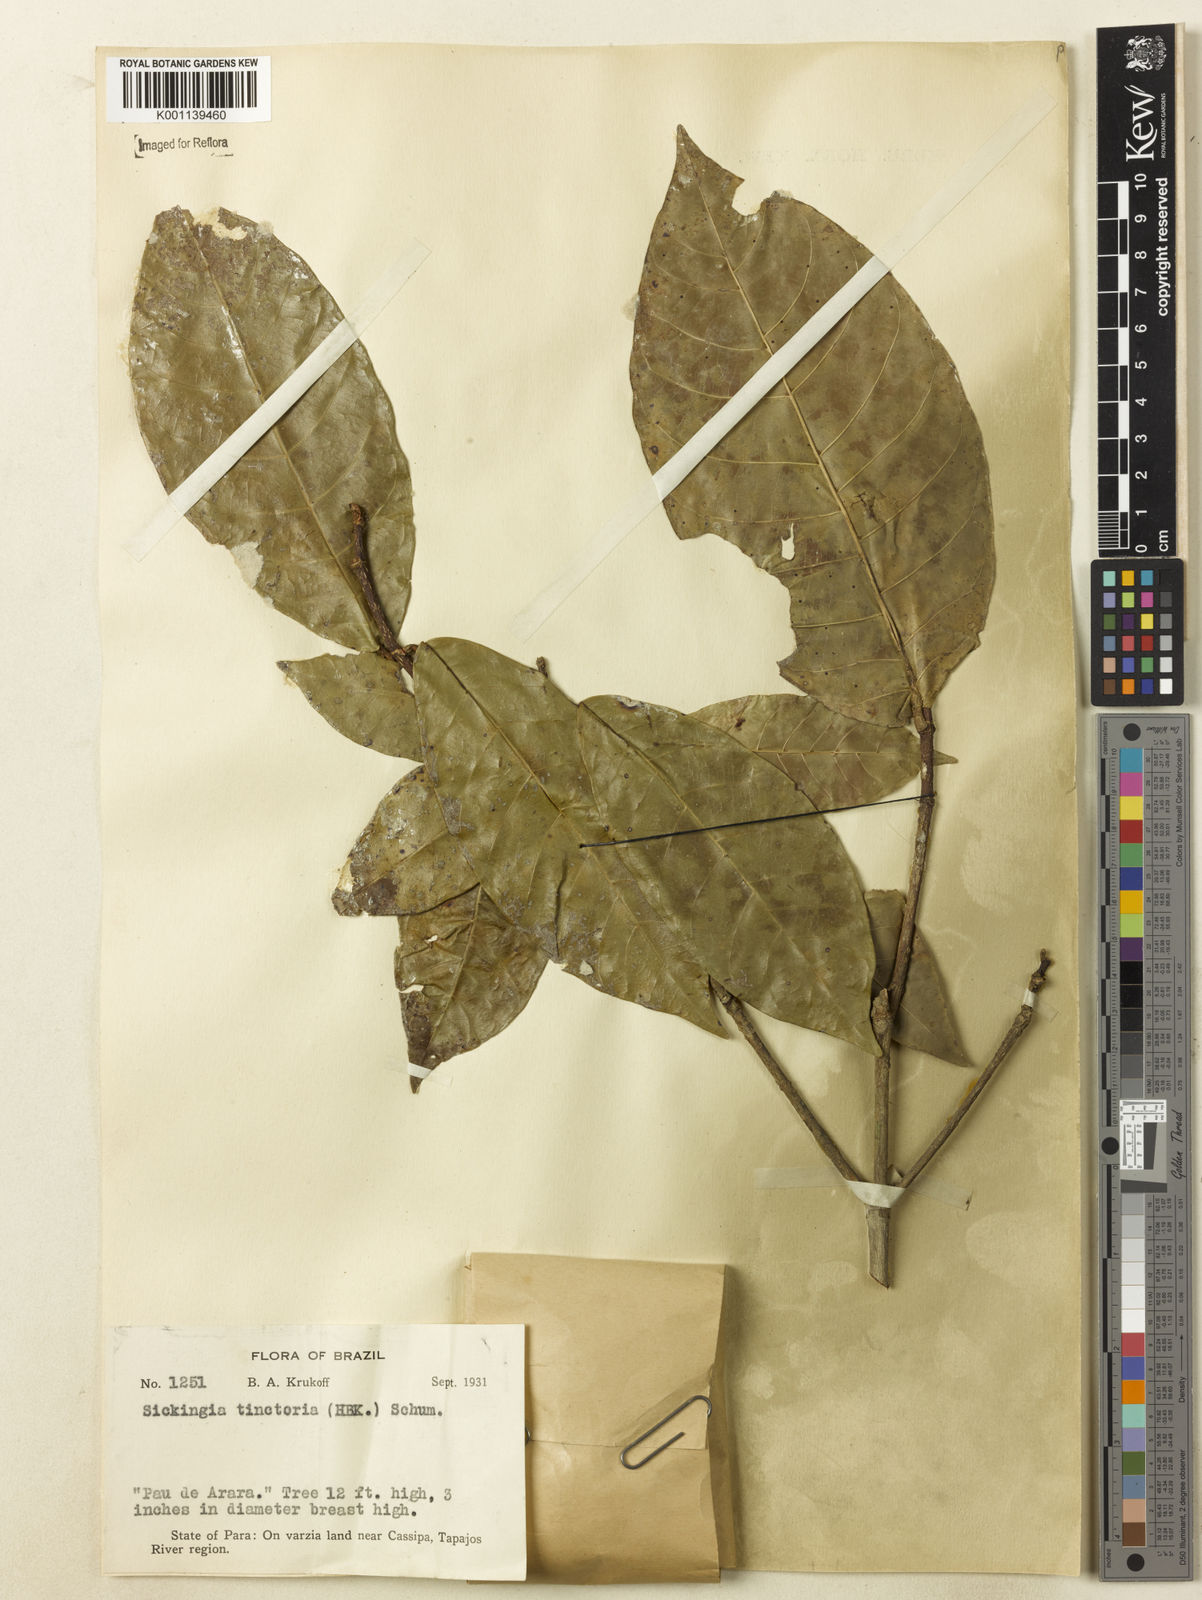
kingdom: Plantae
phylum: Tracheophyta
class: Magnoliopsida
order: Gentianales
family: Rubiaceae
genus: Simira
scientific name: Simira rubescens
